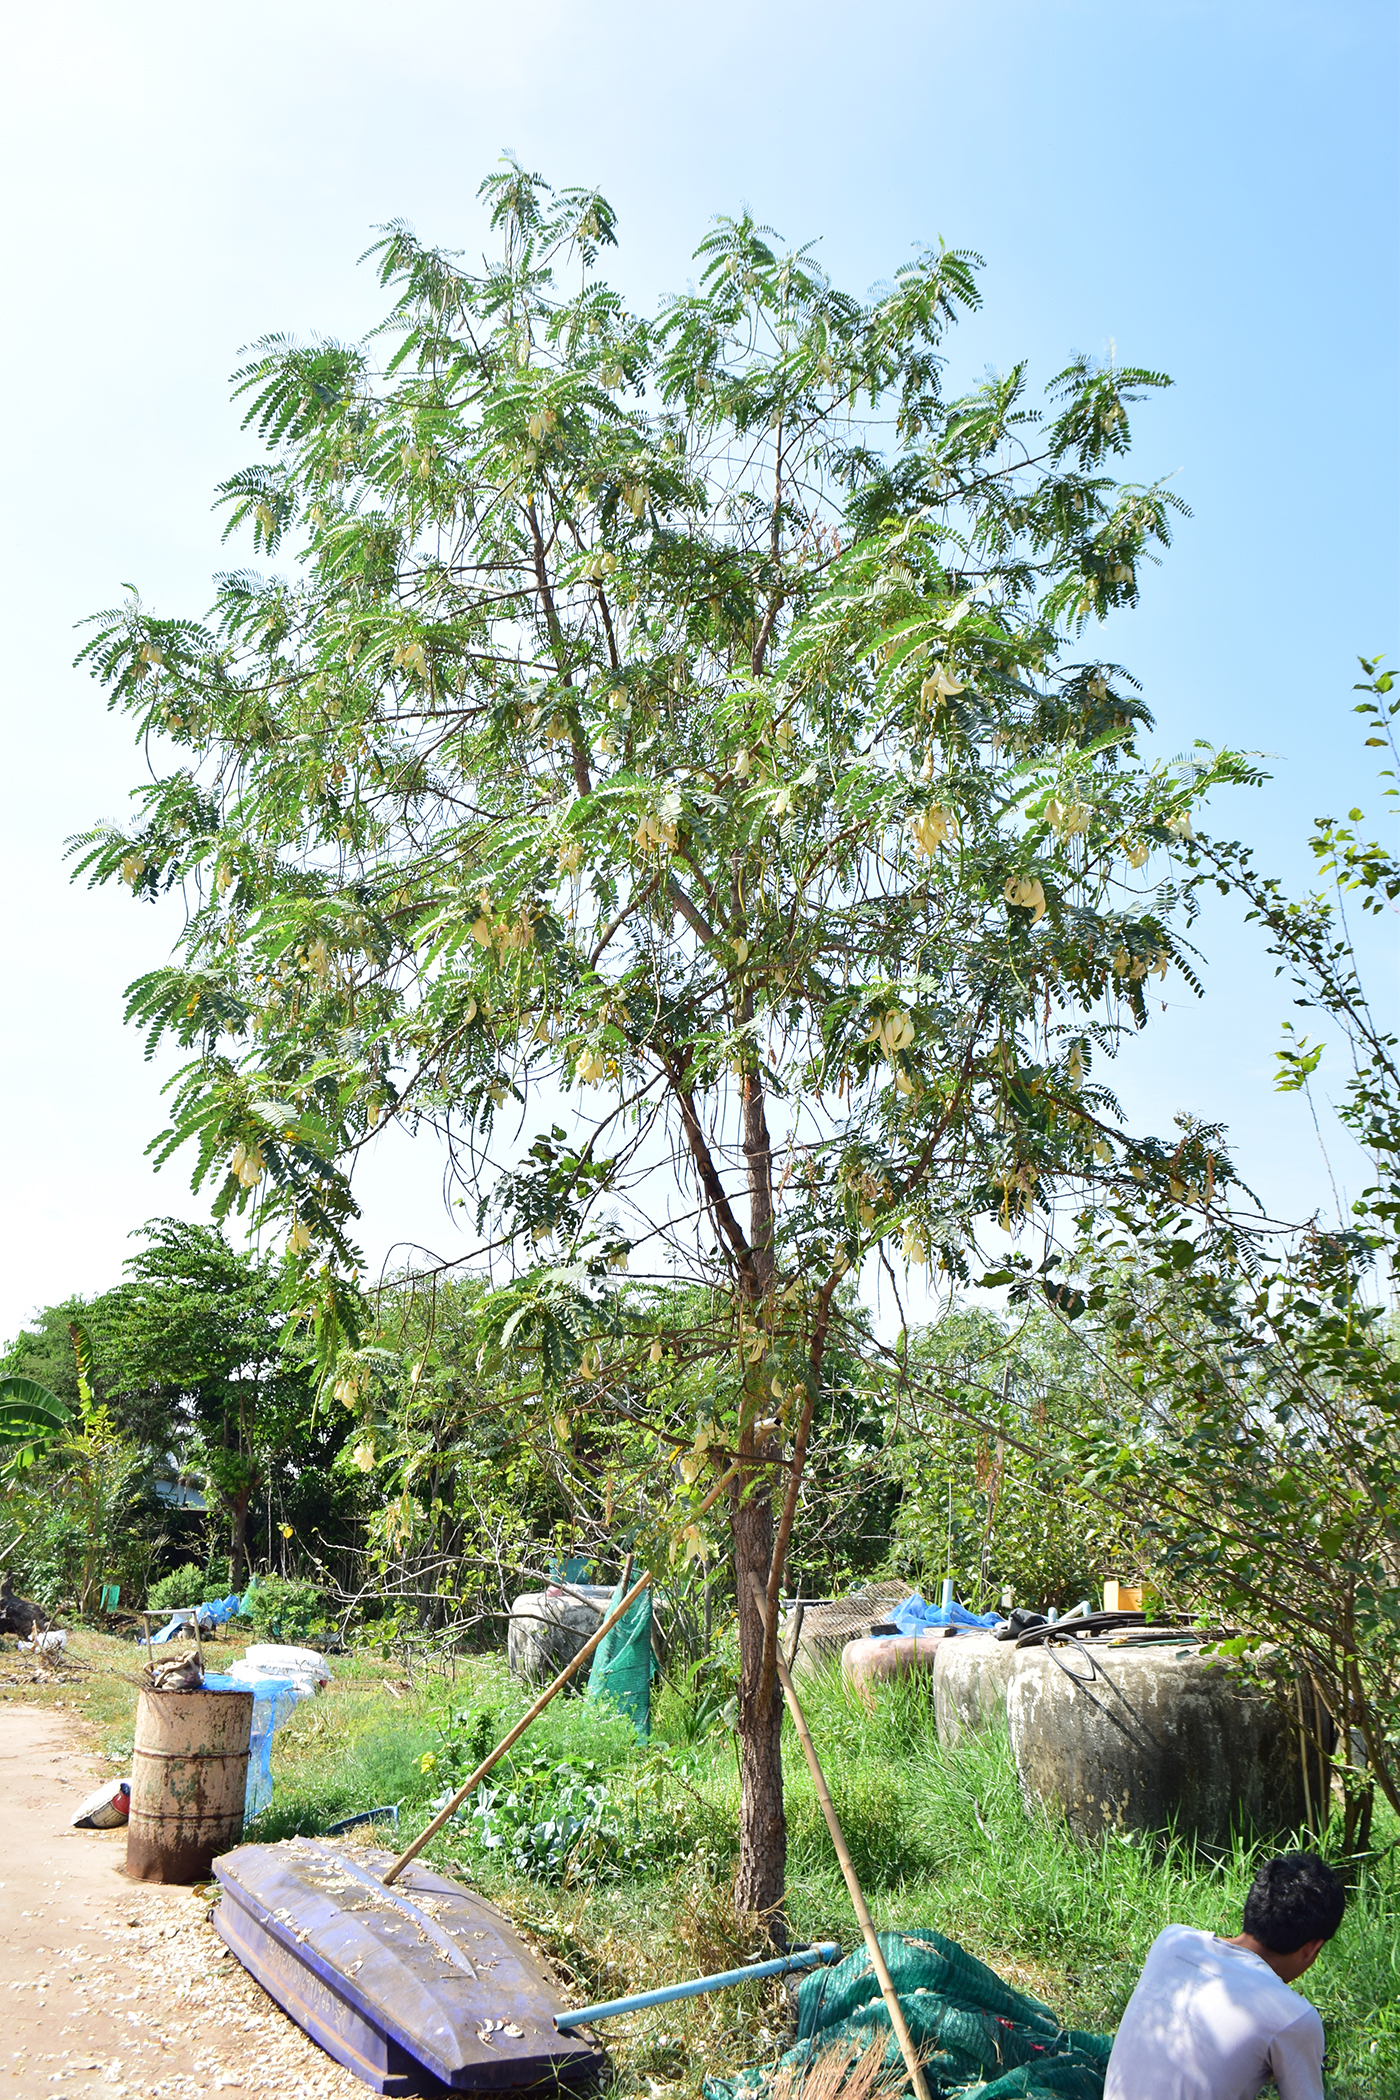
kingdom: Plantae
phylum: Tracheophyta
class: Magnoliopsida
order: Fabales
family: Fabaceae
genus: Sesbania
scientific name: Sesbania grandiflora
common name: Vegetable-hummingbird
